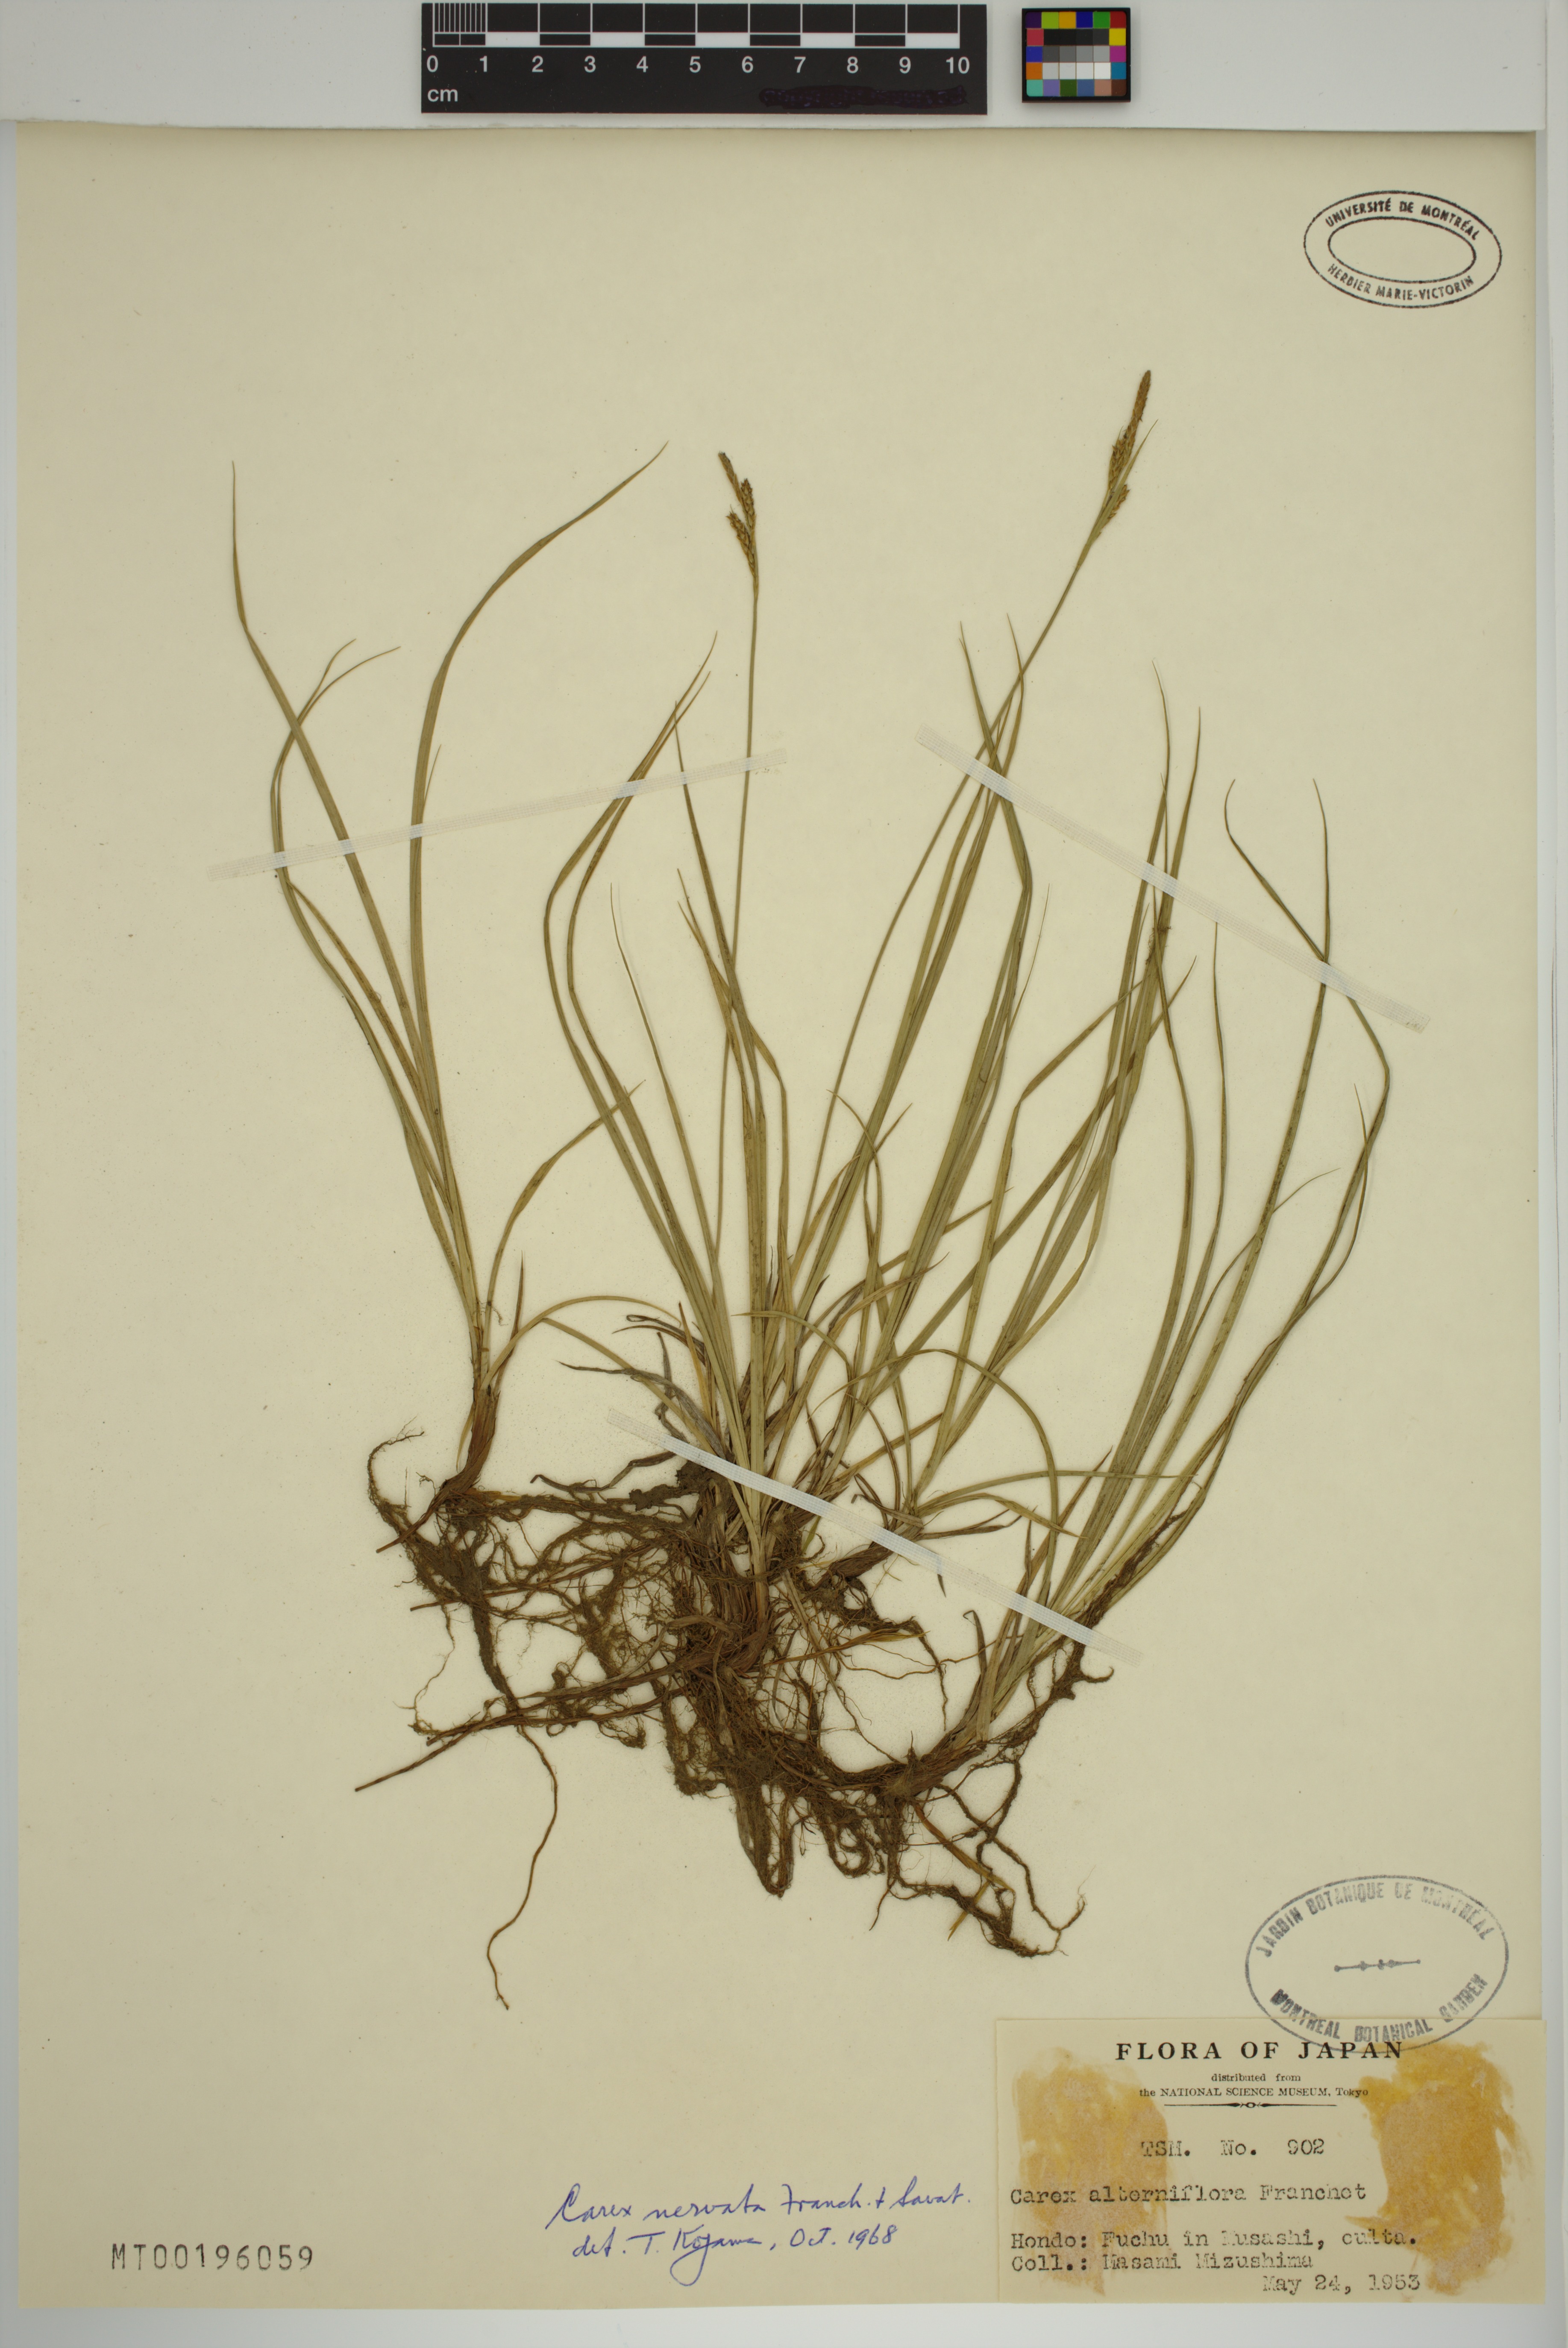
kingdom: Plantae
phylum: Tracheophyta
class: Liliopsida
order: Poales
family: Cyperaceae
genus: Carex
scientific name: Carex nervata
